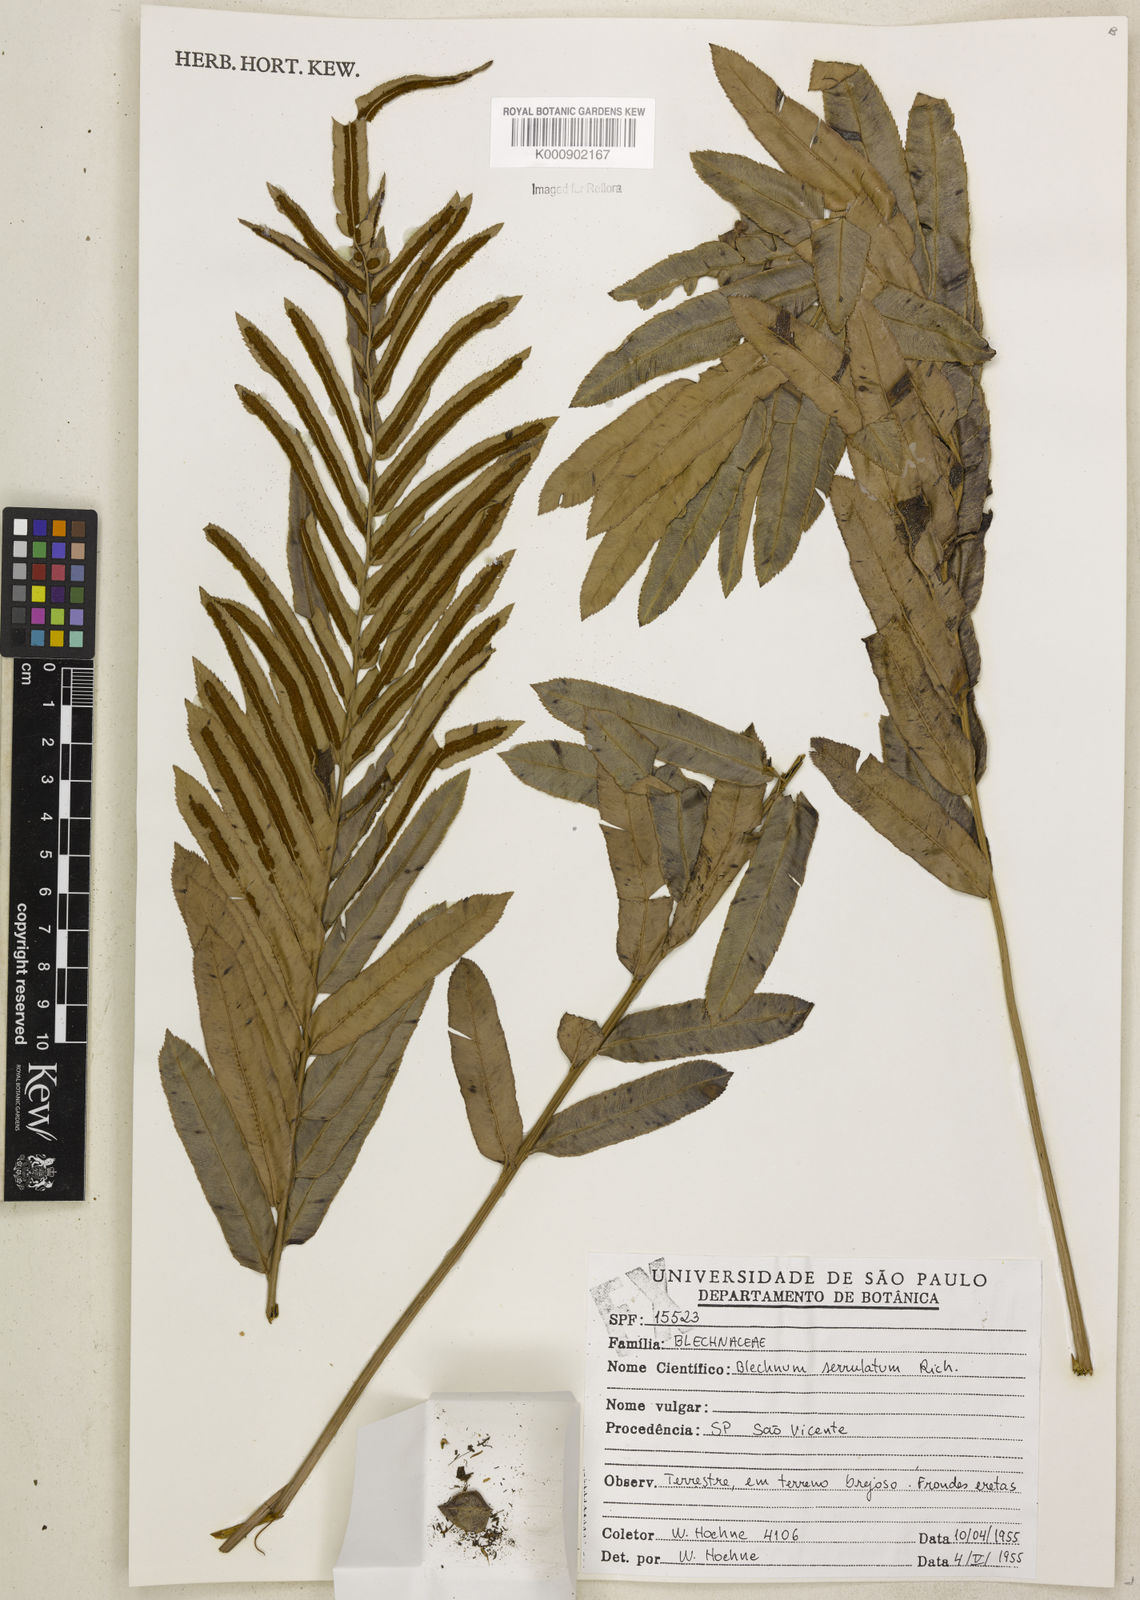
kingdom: Plantae
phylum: Tracheophyta
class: Polypodiopsida
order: Polypodiales
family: Blechnaceae
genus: Telmatoblechnum
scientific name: Telmatoblechnum serrulatum
